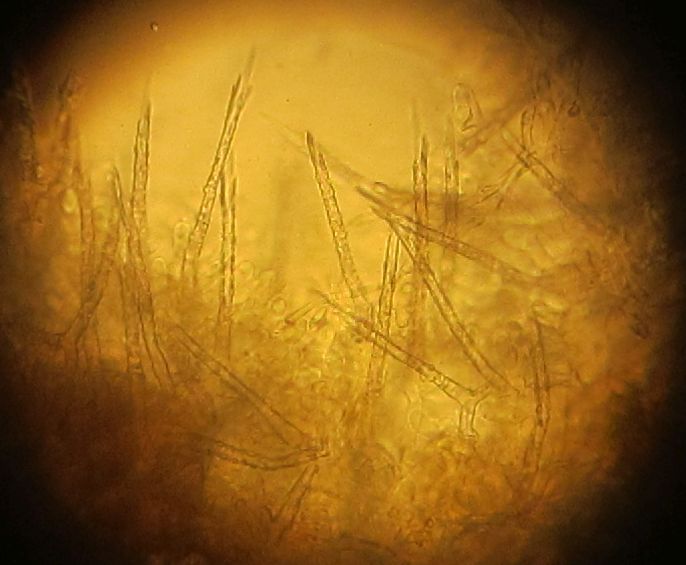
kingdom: Fungi
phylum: Basidiomycota
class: Agaricomycetes
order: Trechisporales
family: Hydnodontaceae
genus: Subulicystidium
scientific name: Subulicystidium longisporum
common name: almindelig pigtrådshinde
